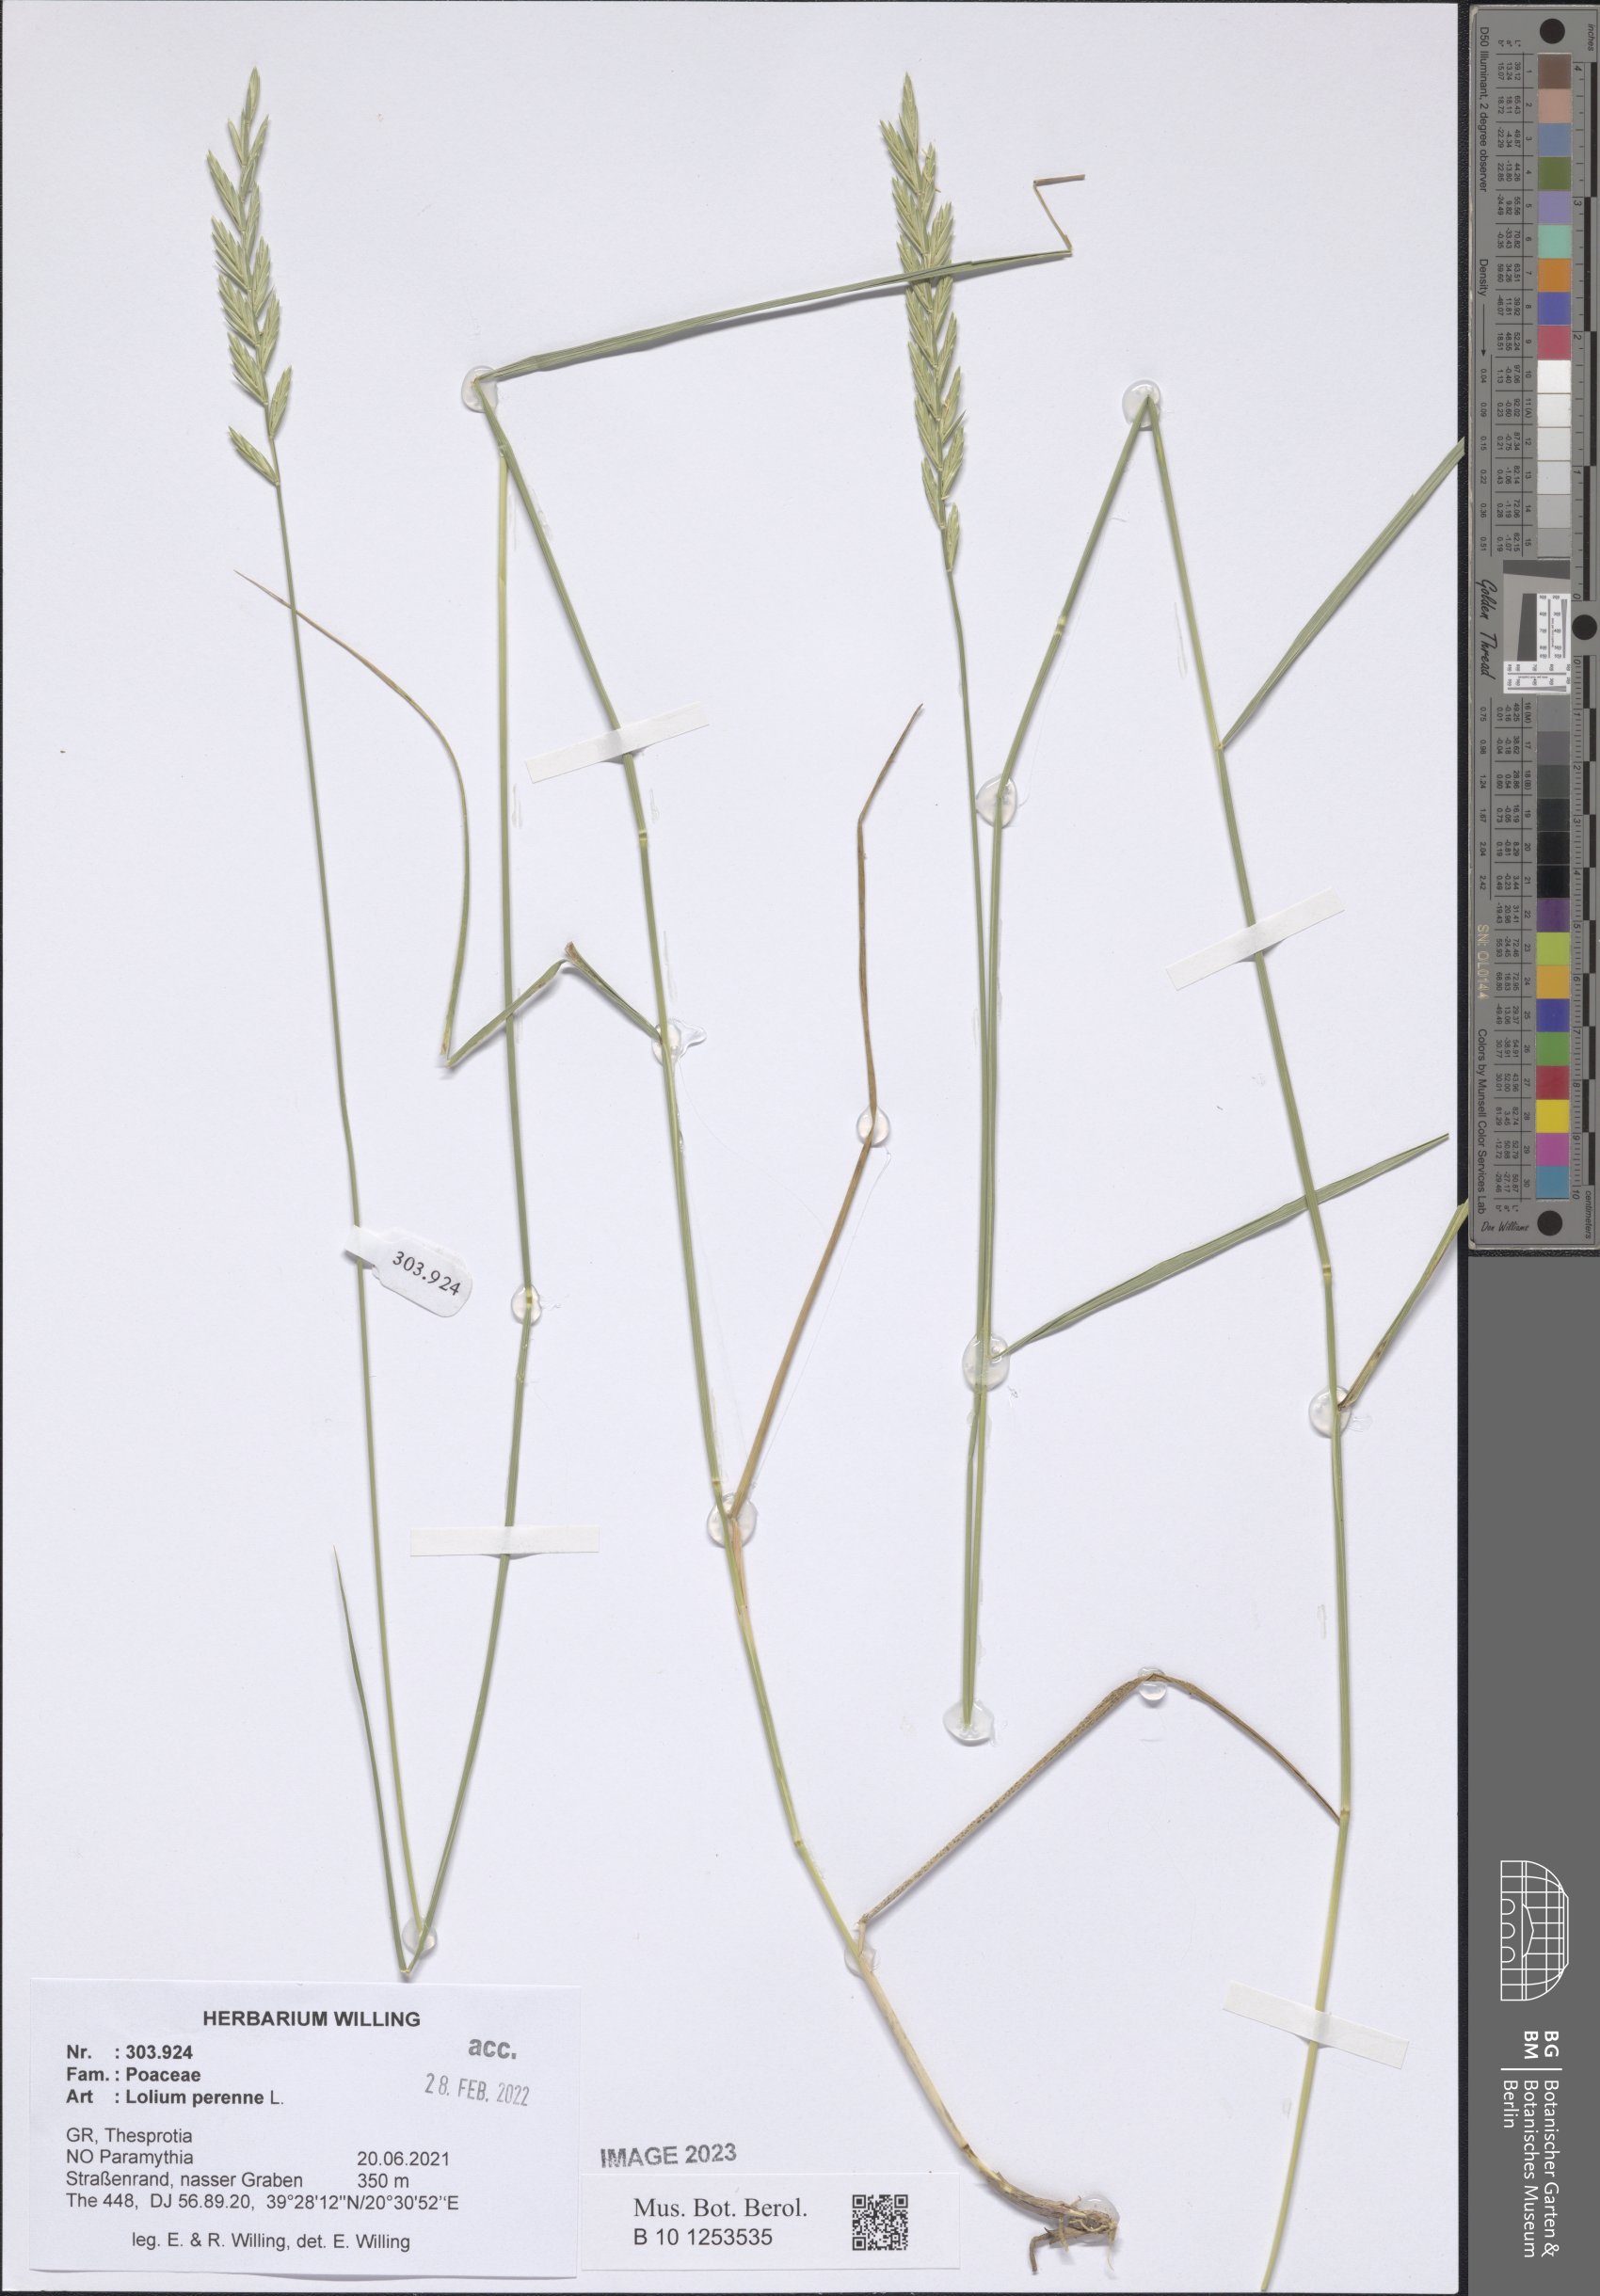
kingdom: Plantae
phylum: Tracheophyta
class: Liliopsida
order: Poales
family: Poaceae
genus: Lolium
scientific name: Lolium perenne
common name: Perennial ryegrass
